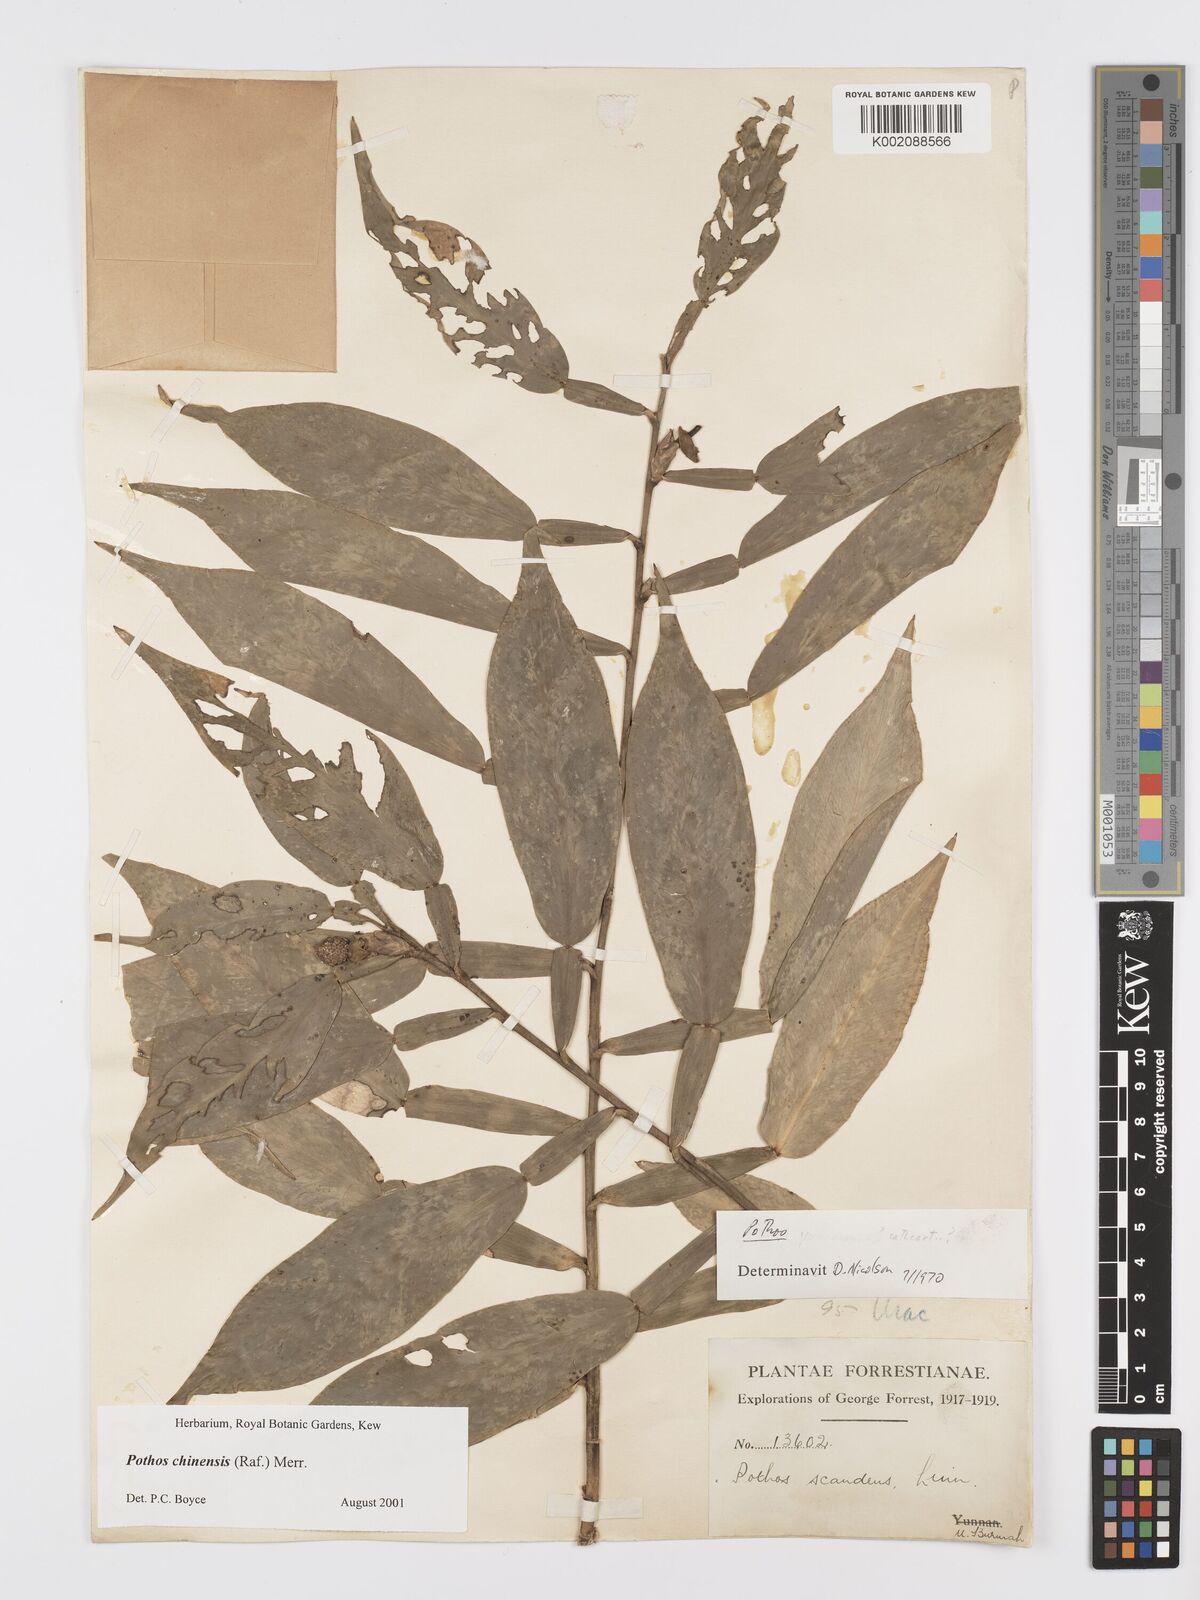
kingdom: Plantae
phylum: Tracheophyta
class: Liliopsida
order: Alismatales
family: Araceae
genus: Pothos
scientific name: Pothos chinensis
